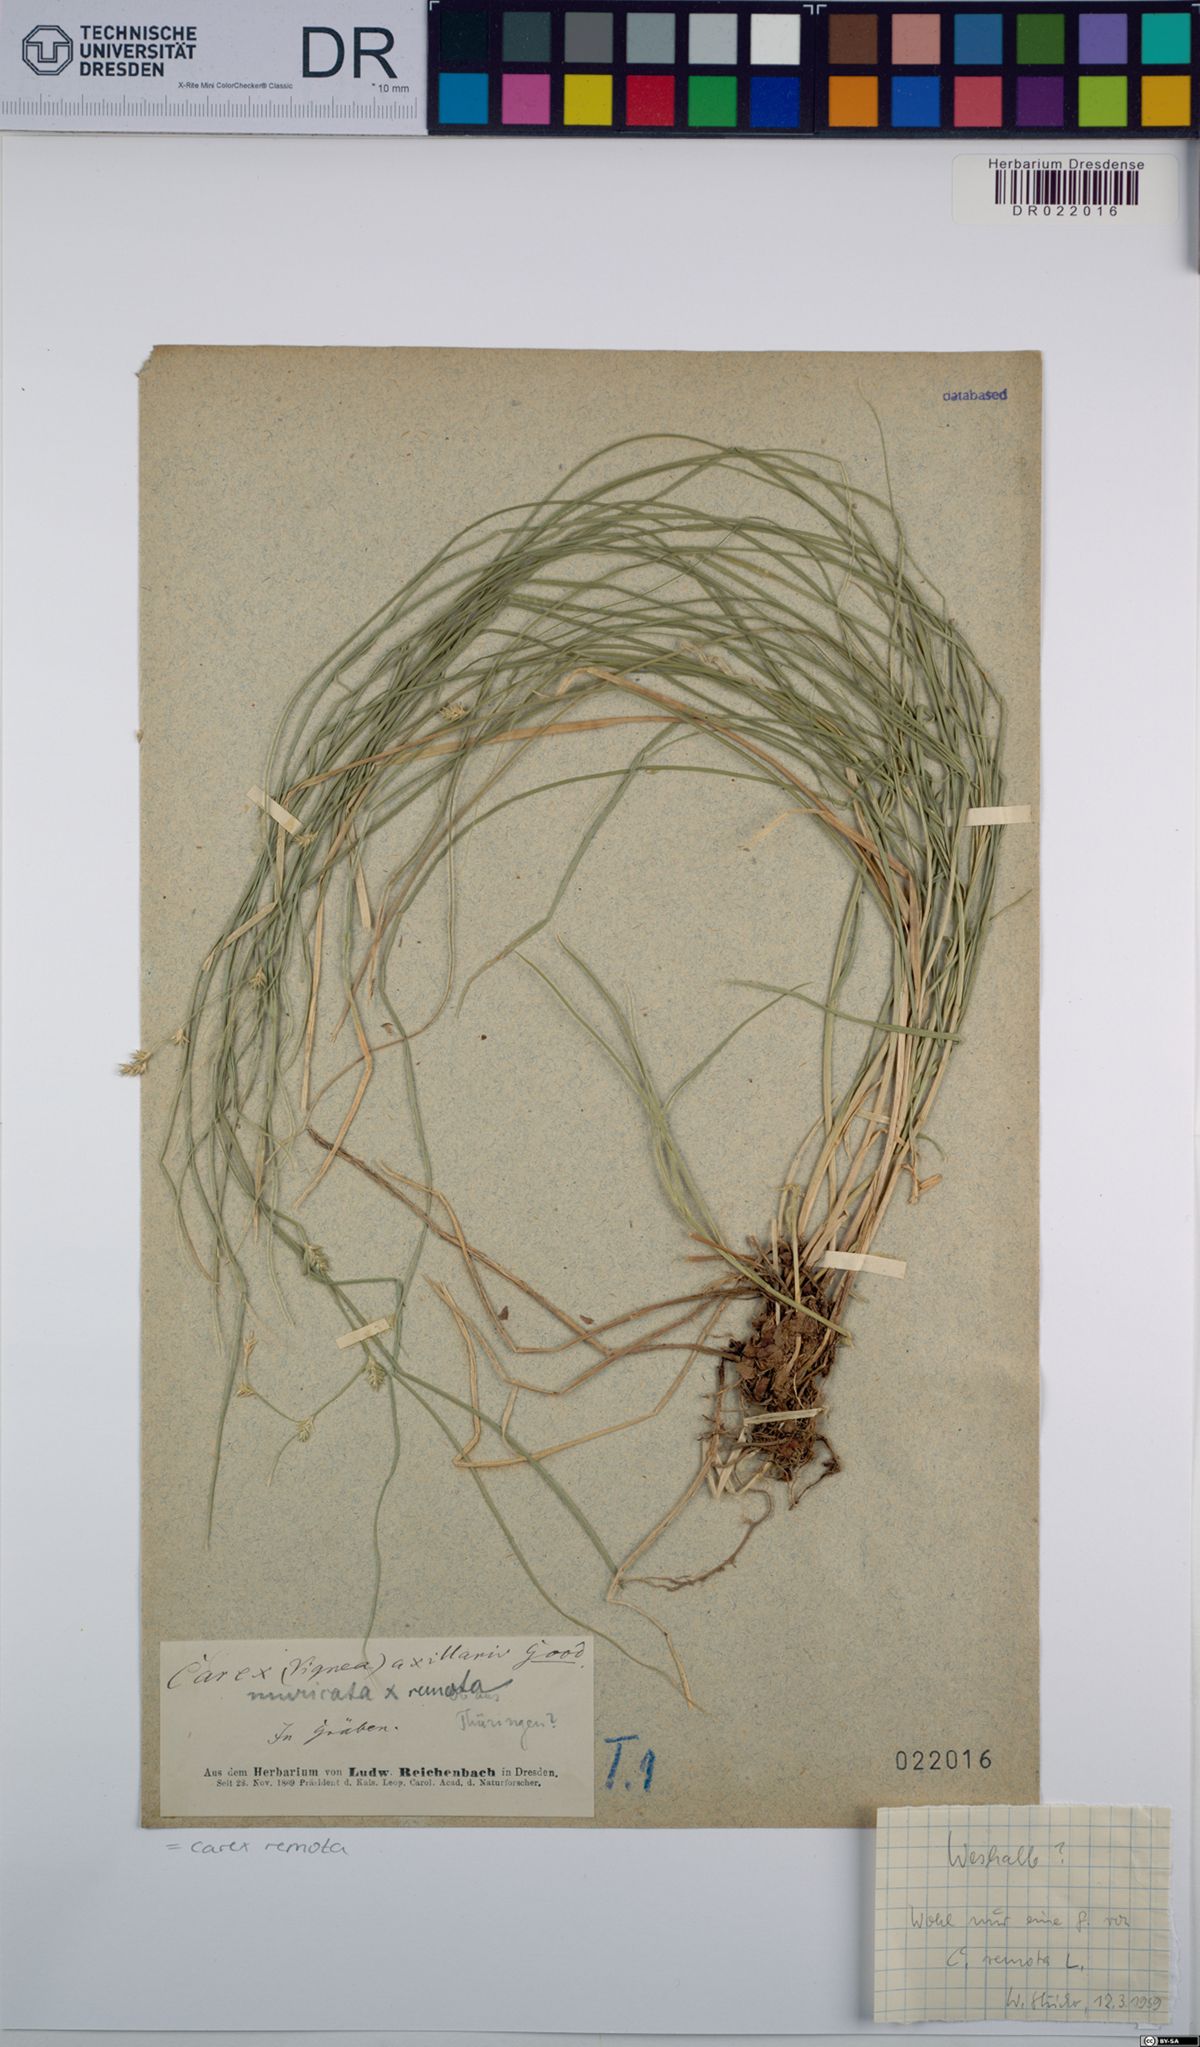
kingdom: Plantae
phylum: Tracheophyta
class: Liliopsida
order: Poales
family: Cyperaceae
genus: Carex
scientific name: Carex remota
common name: Remote sedge
